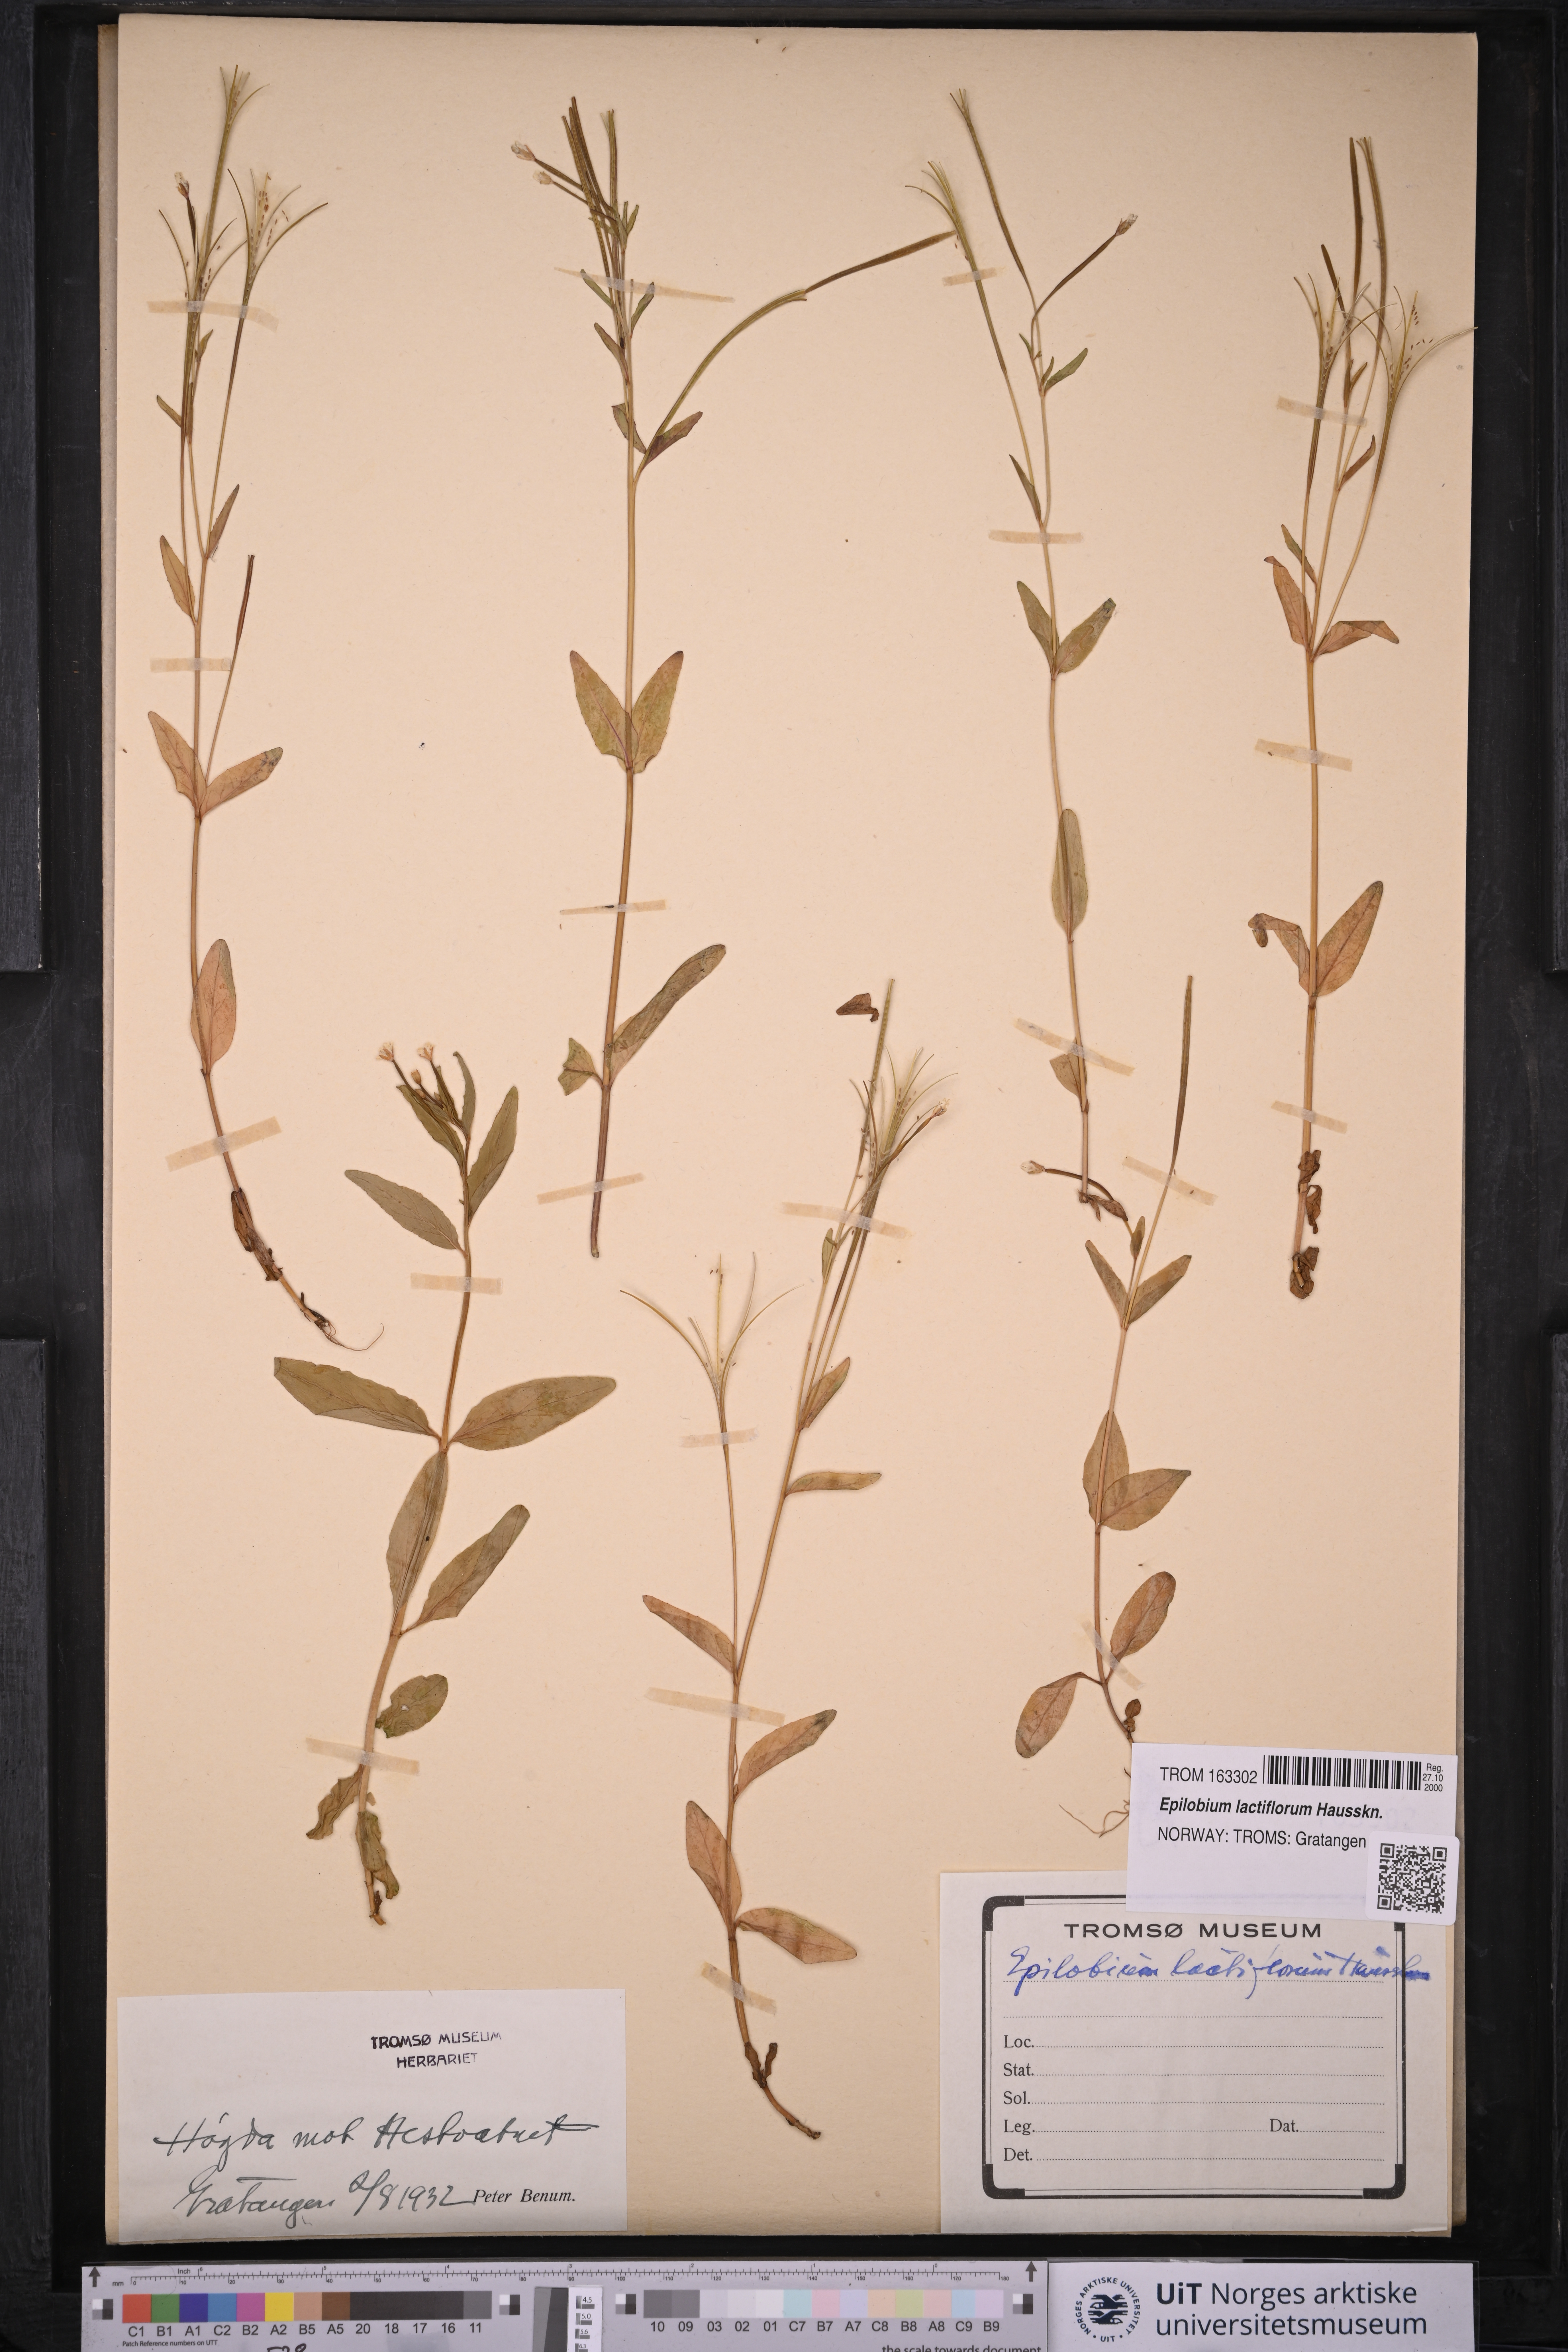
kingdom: Plantae
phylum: Tracheophyta
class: Magnoliopsida
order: Myrtales
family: Onagraceae
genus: Epilobium
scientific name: Epilobium lactiflorum
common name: Milkflower willowherb
